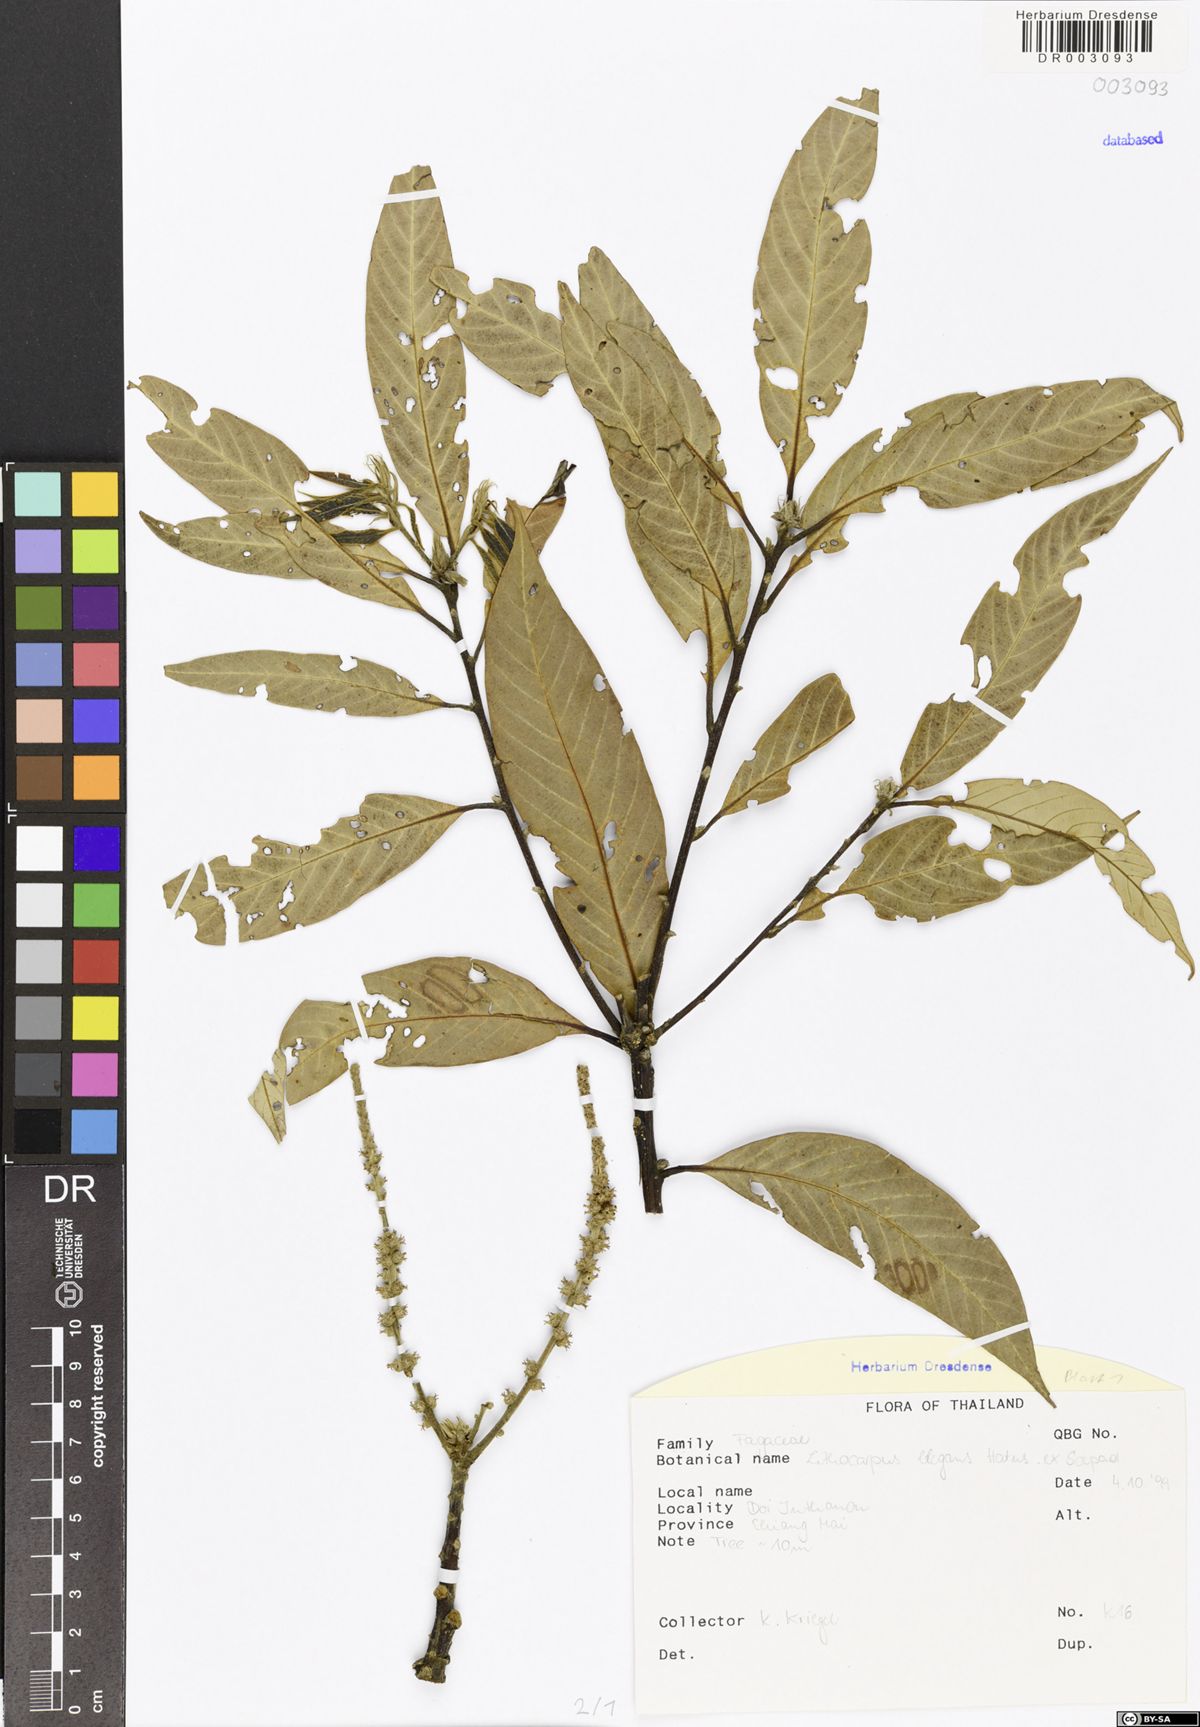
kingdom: Plantae
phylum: Tracheophyta
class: Magnoliopsida
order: Fagales
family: Fagaceae
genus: Lithocarpus
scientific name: Lithocarpus elegans
